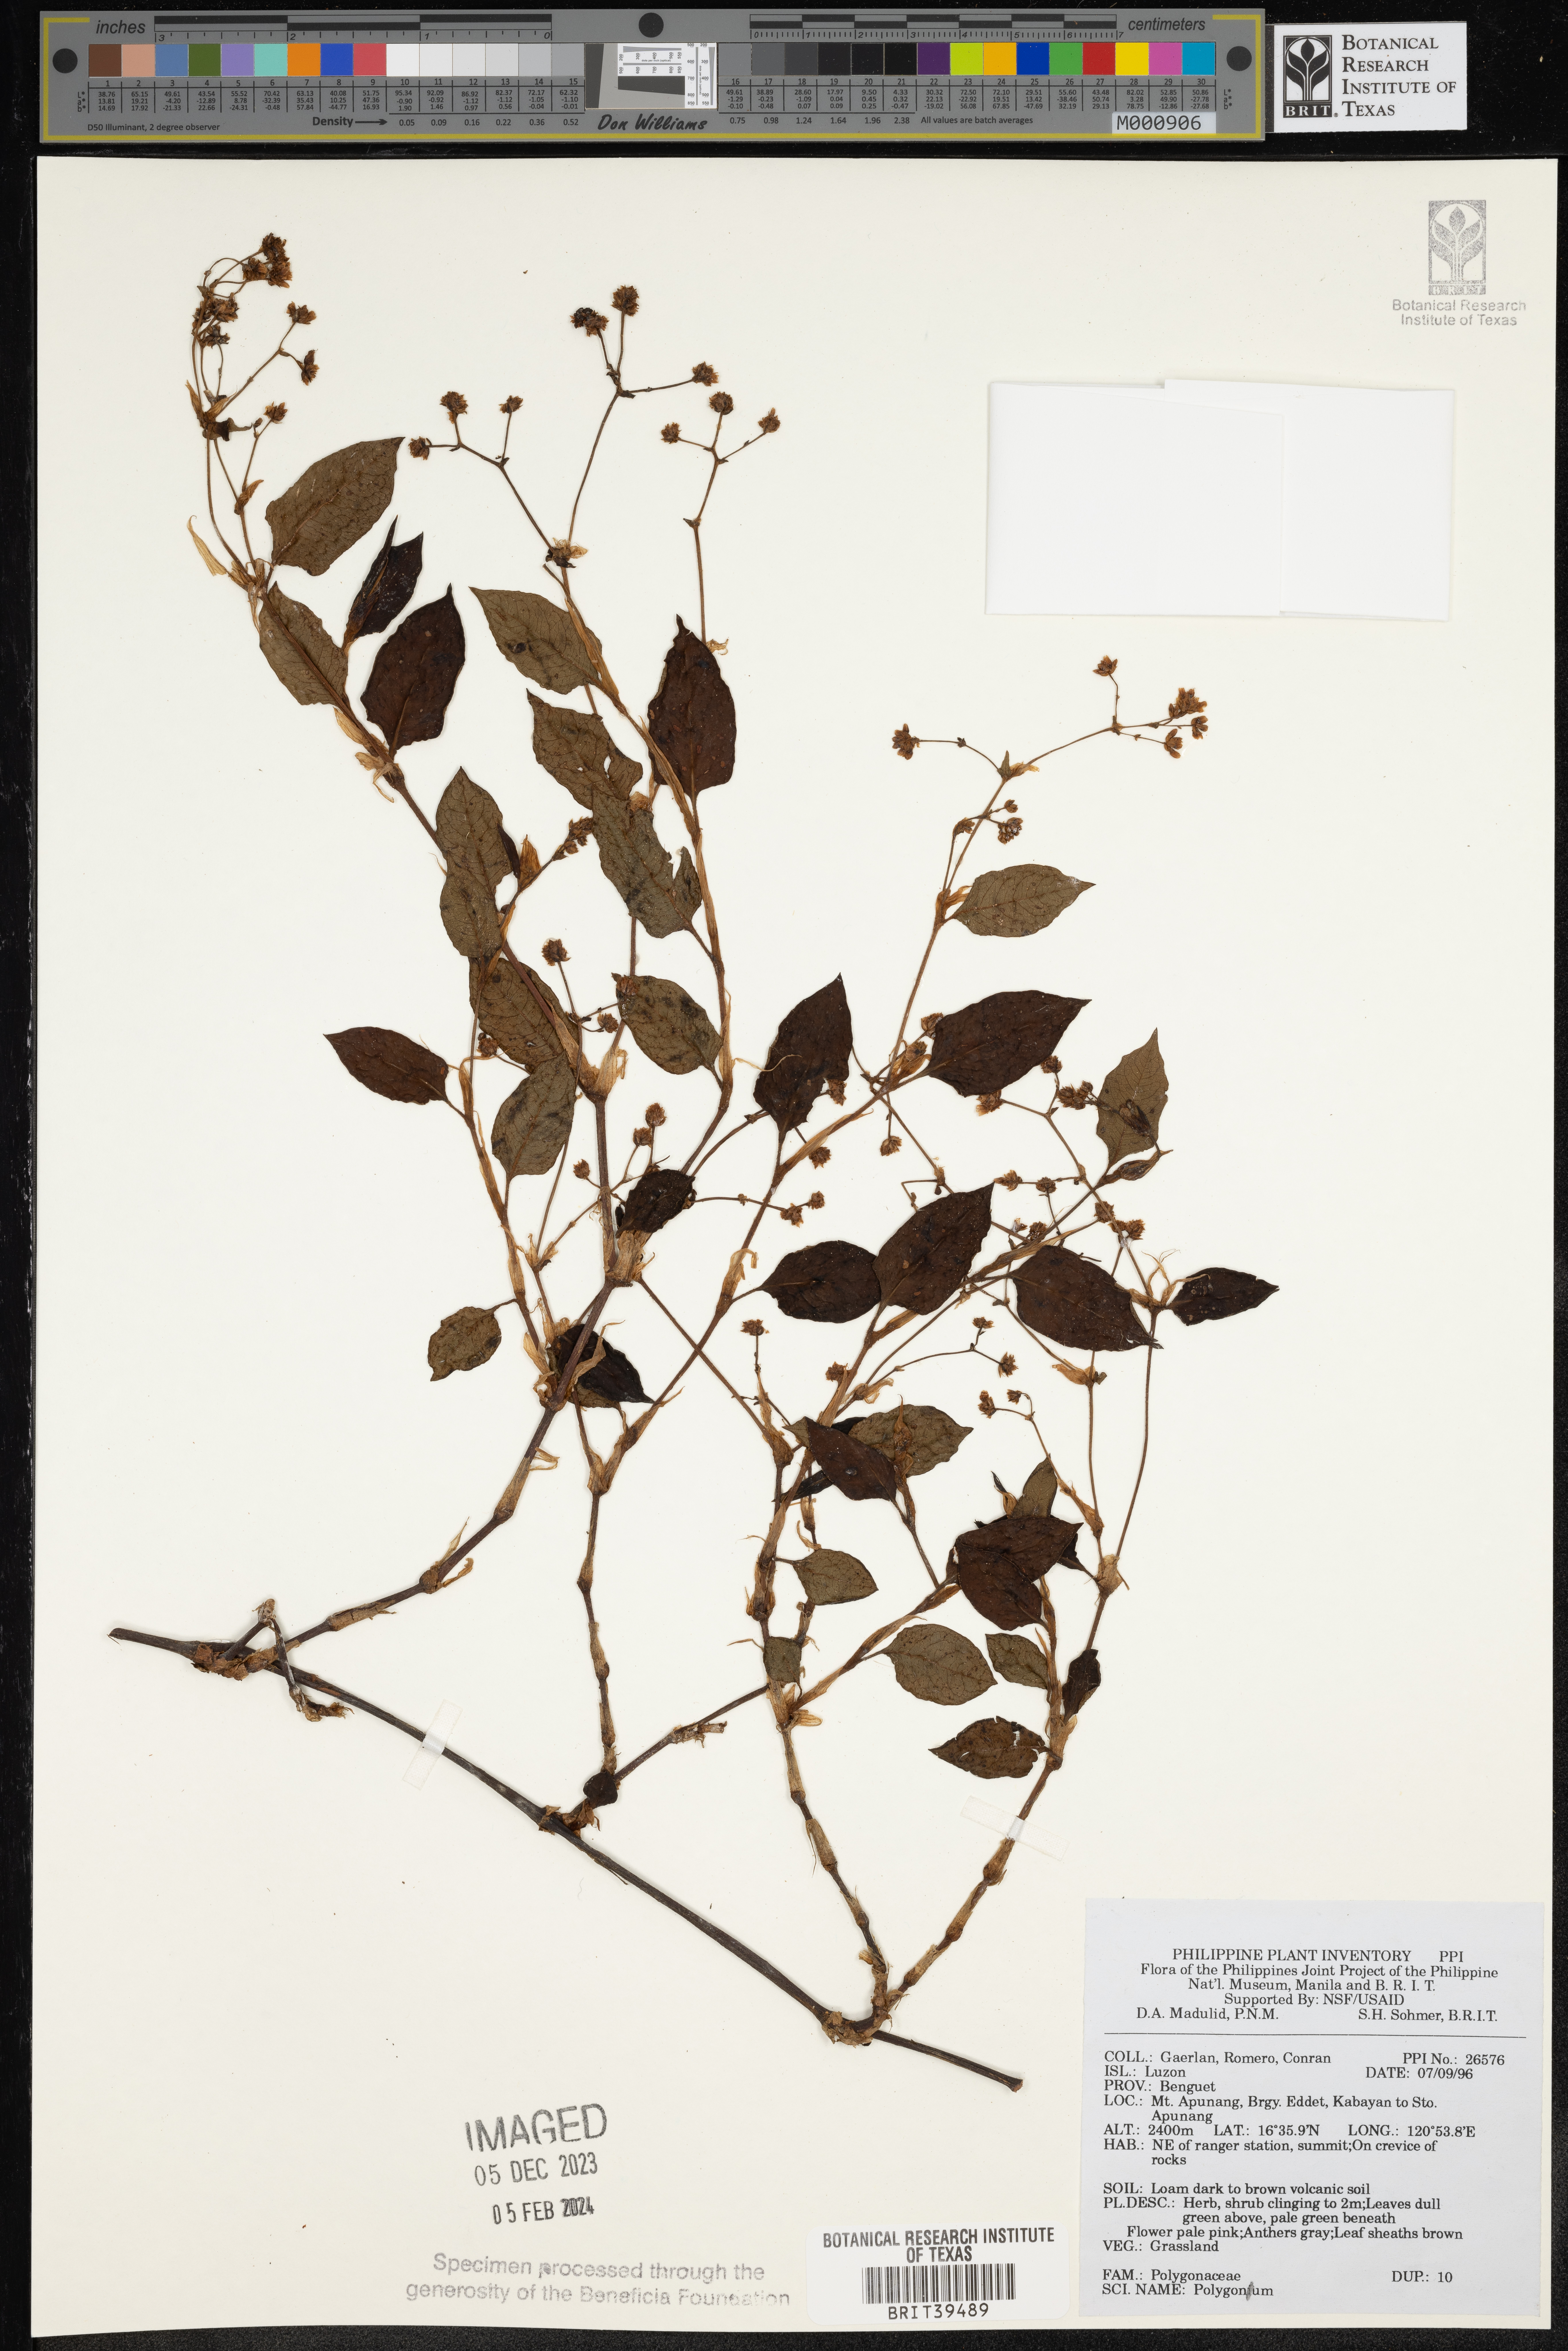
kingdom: Plantae
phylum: Tracheophyta
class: Magnoliopsida
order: Caryophyllales
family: Polygonaceae
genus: Polygonum
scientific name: Polygonum
